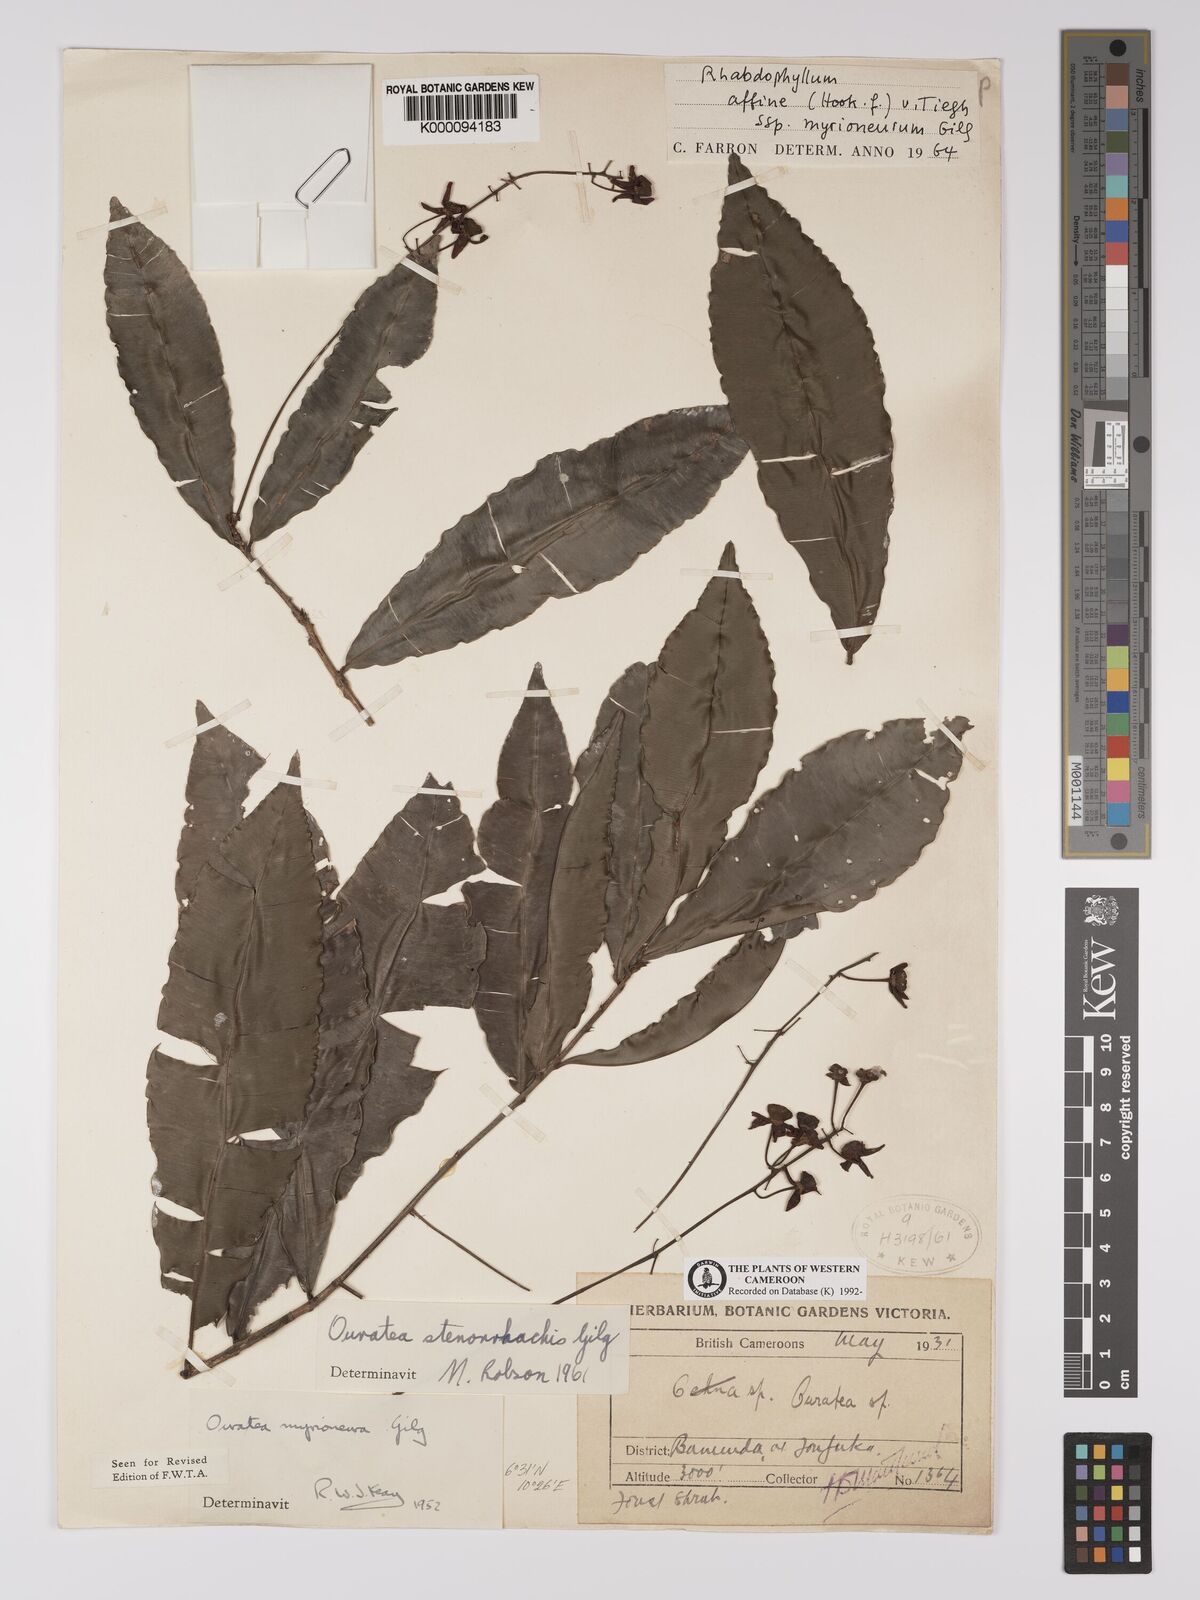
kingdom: Plantae
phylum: Tracheophyta
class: Magnoliopsida
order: Malpighiales
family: Ochnaceae
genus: Rhabdophyllum
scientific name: Rhabdophyllum affine
